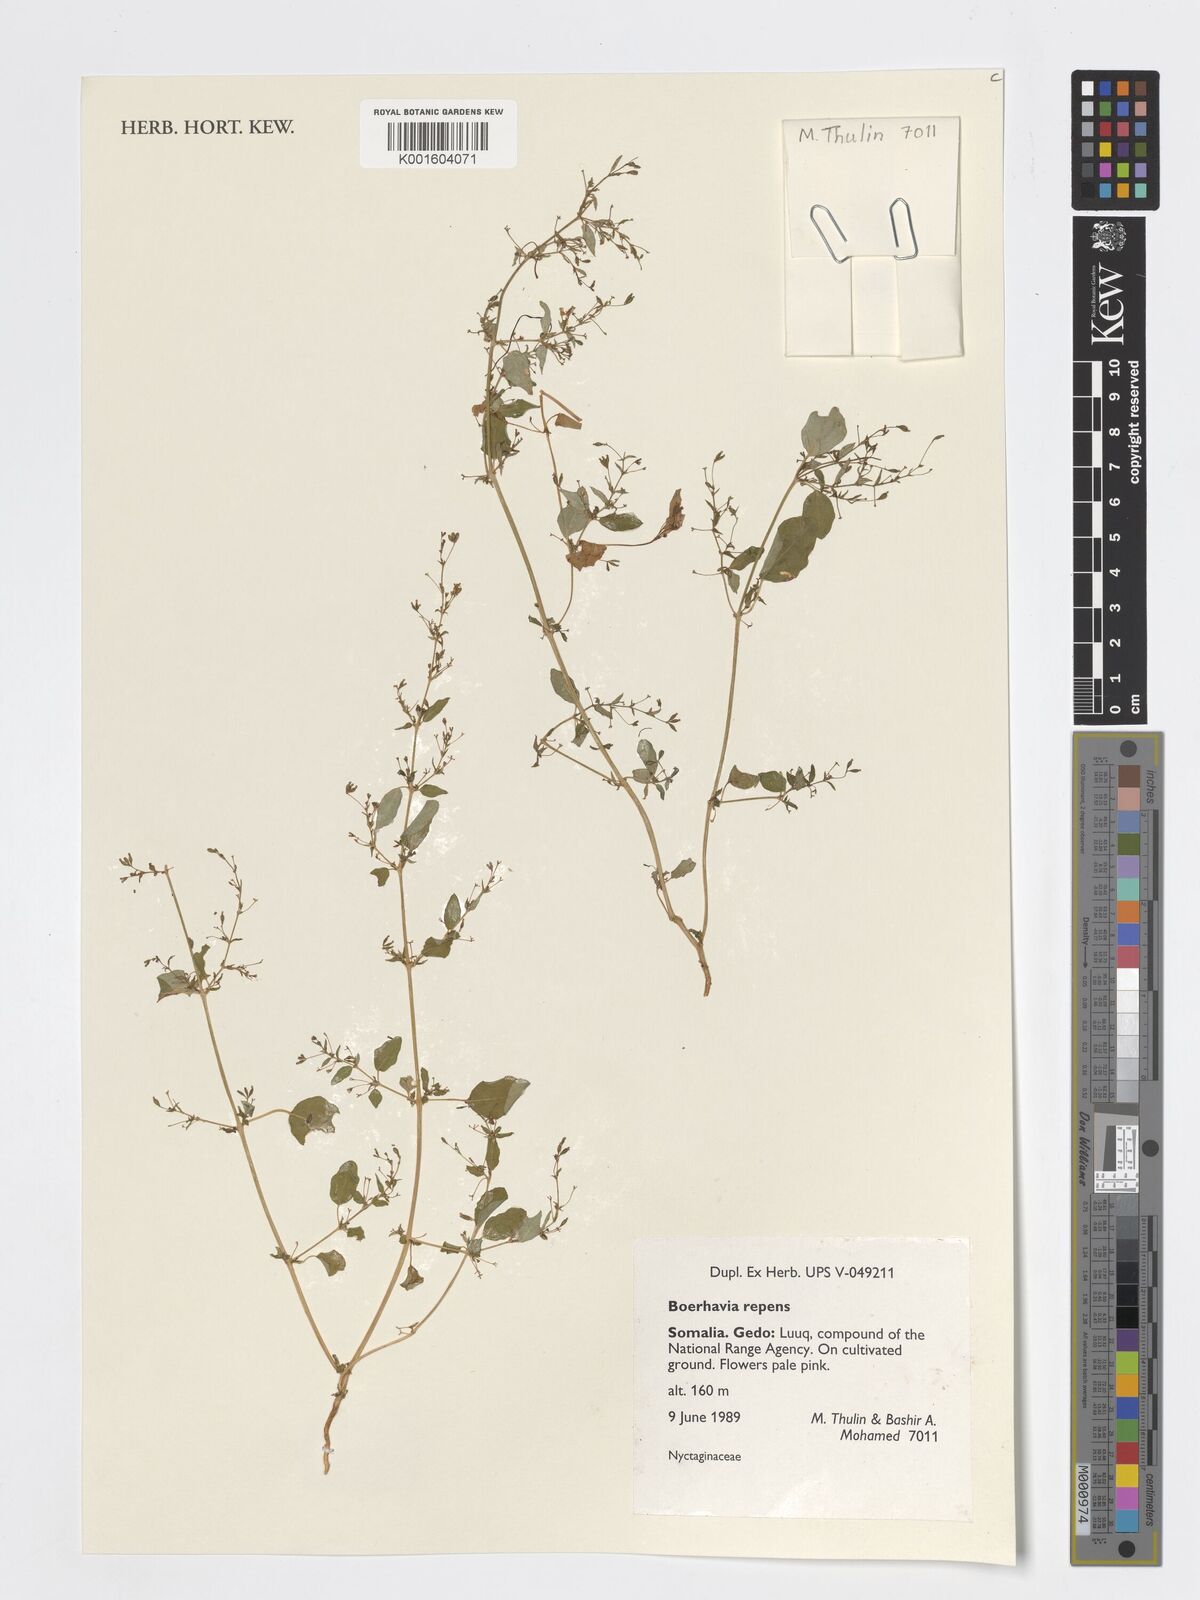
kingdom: Plantae
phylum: Tracheophyta
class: Magnoliopsida
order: Caryophyllales
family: Nyctaginaceae
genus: Boerhavia
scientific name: Boerhavia repens
